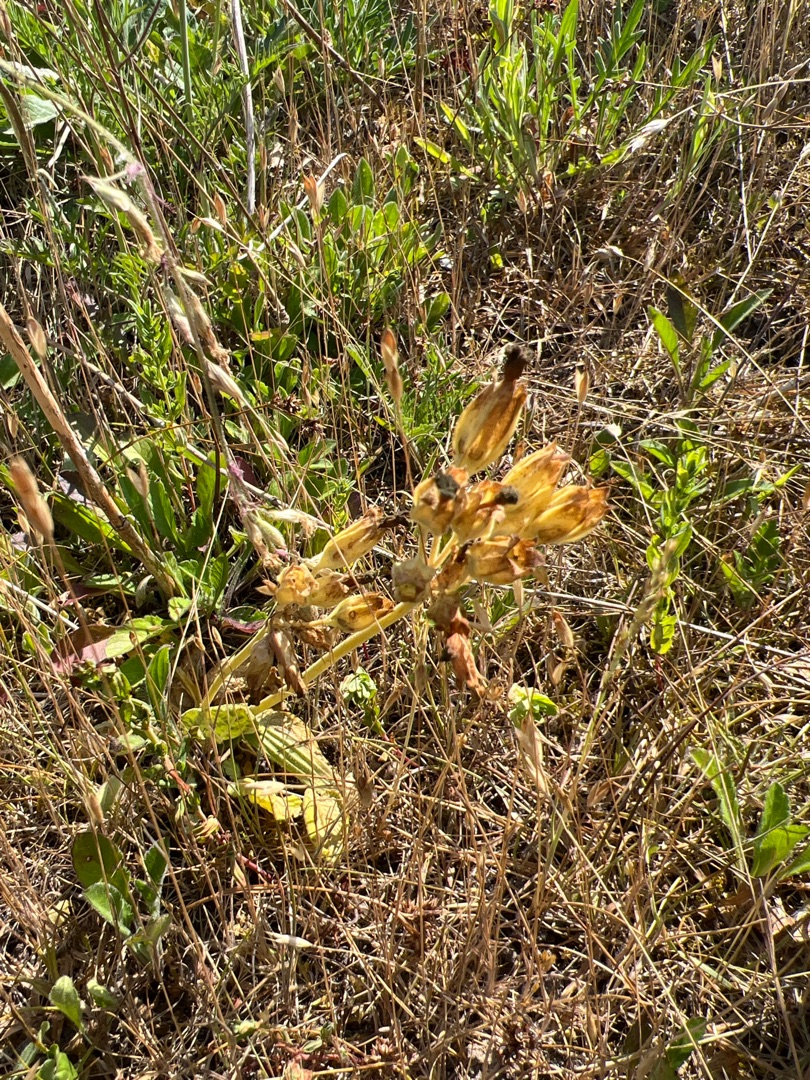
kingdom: Plantae
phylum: Tracheophyta
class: Magnoliopsida
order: Ericales
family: Primulaceae
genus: Primula
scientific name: Primula veris
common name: Hulkravet kodriver
